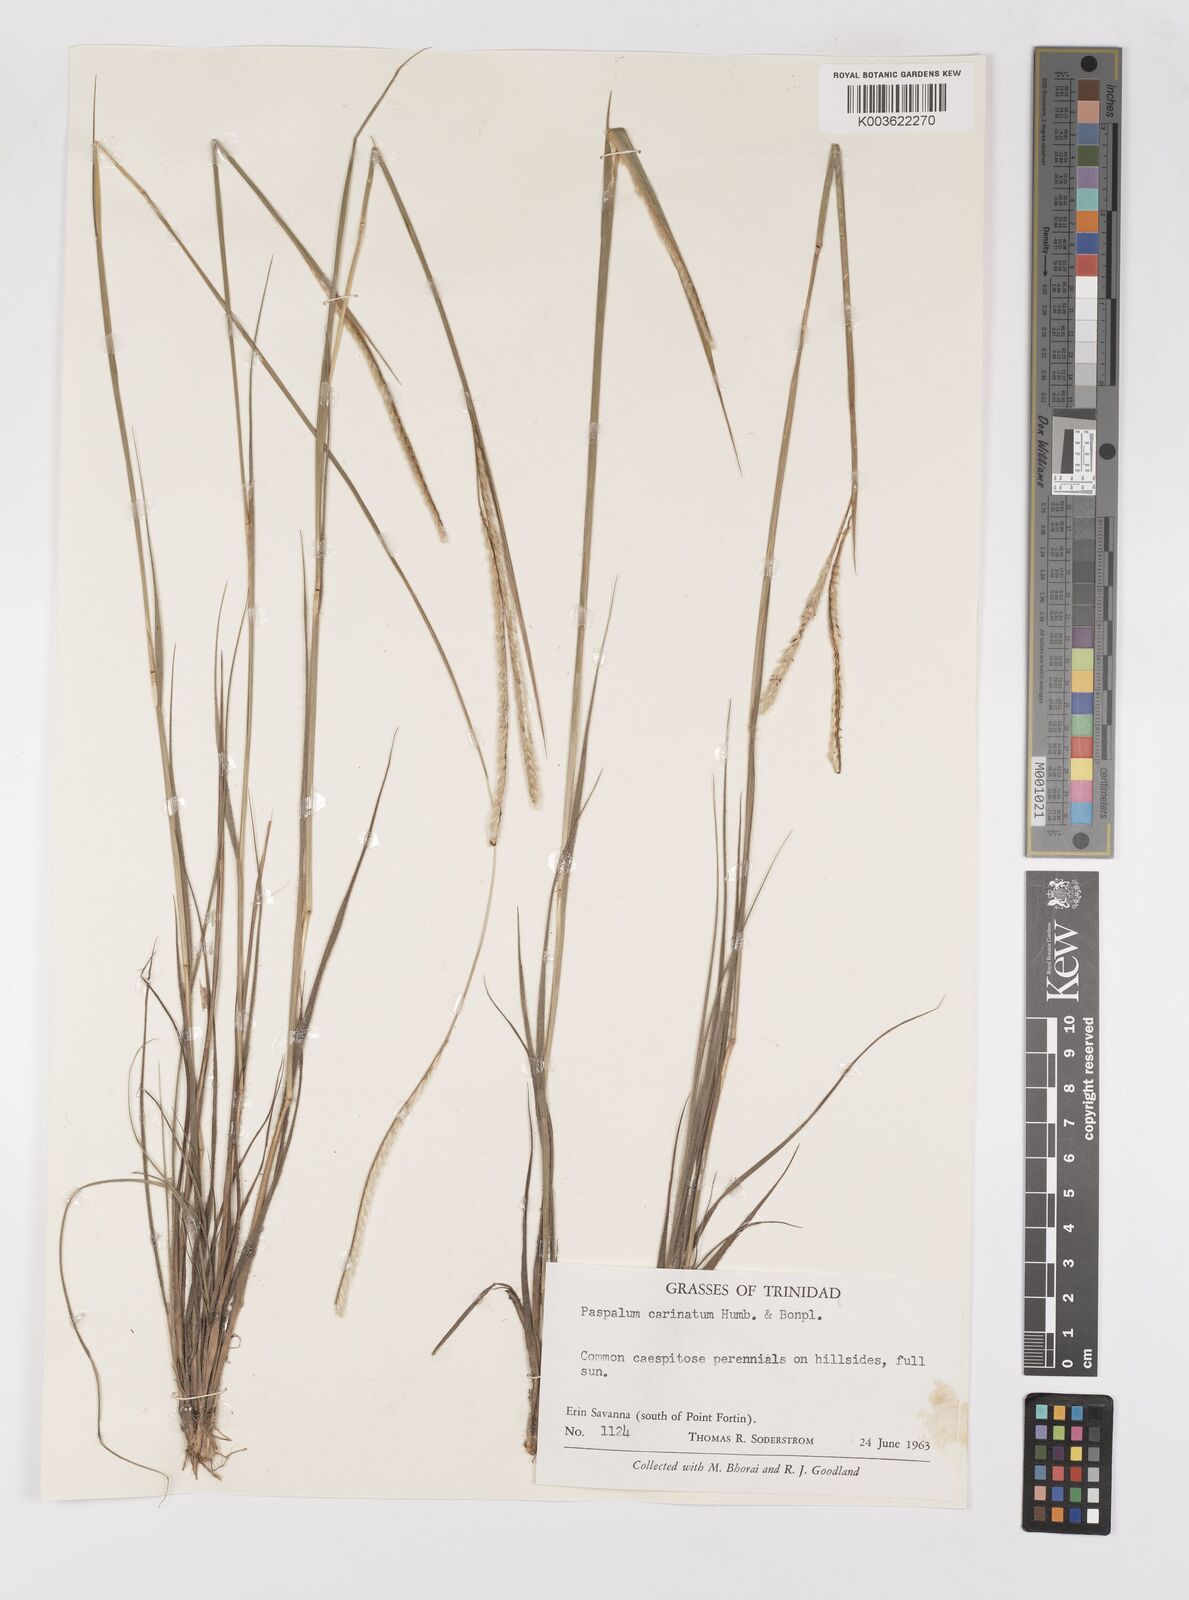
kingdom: Plantae
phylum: Tracheophyta
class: Liliopsida
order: Poales
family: Poaceae
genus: Paspalum
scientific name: Paspalum carinatum
